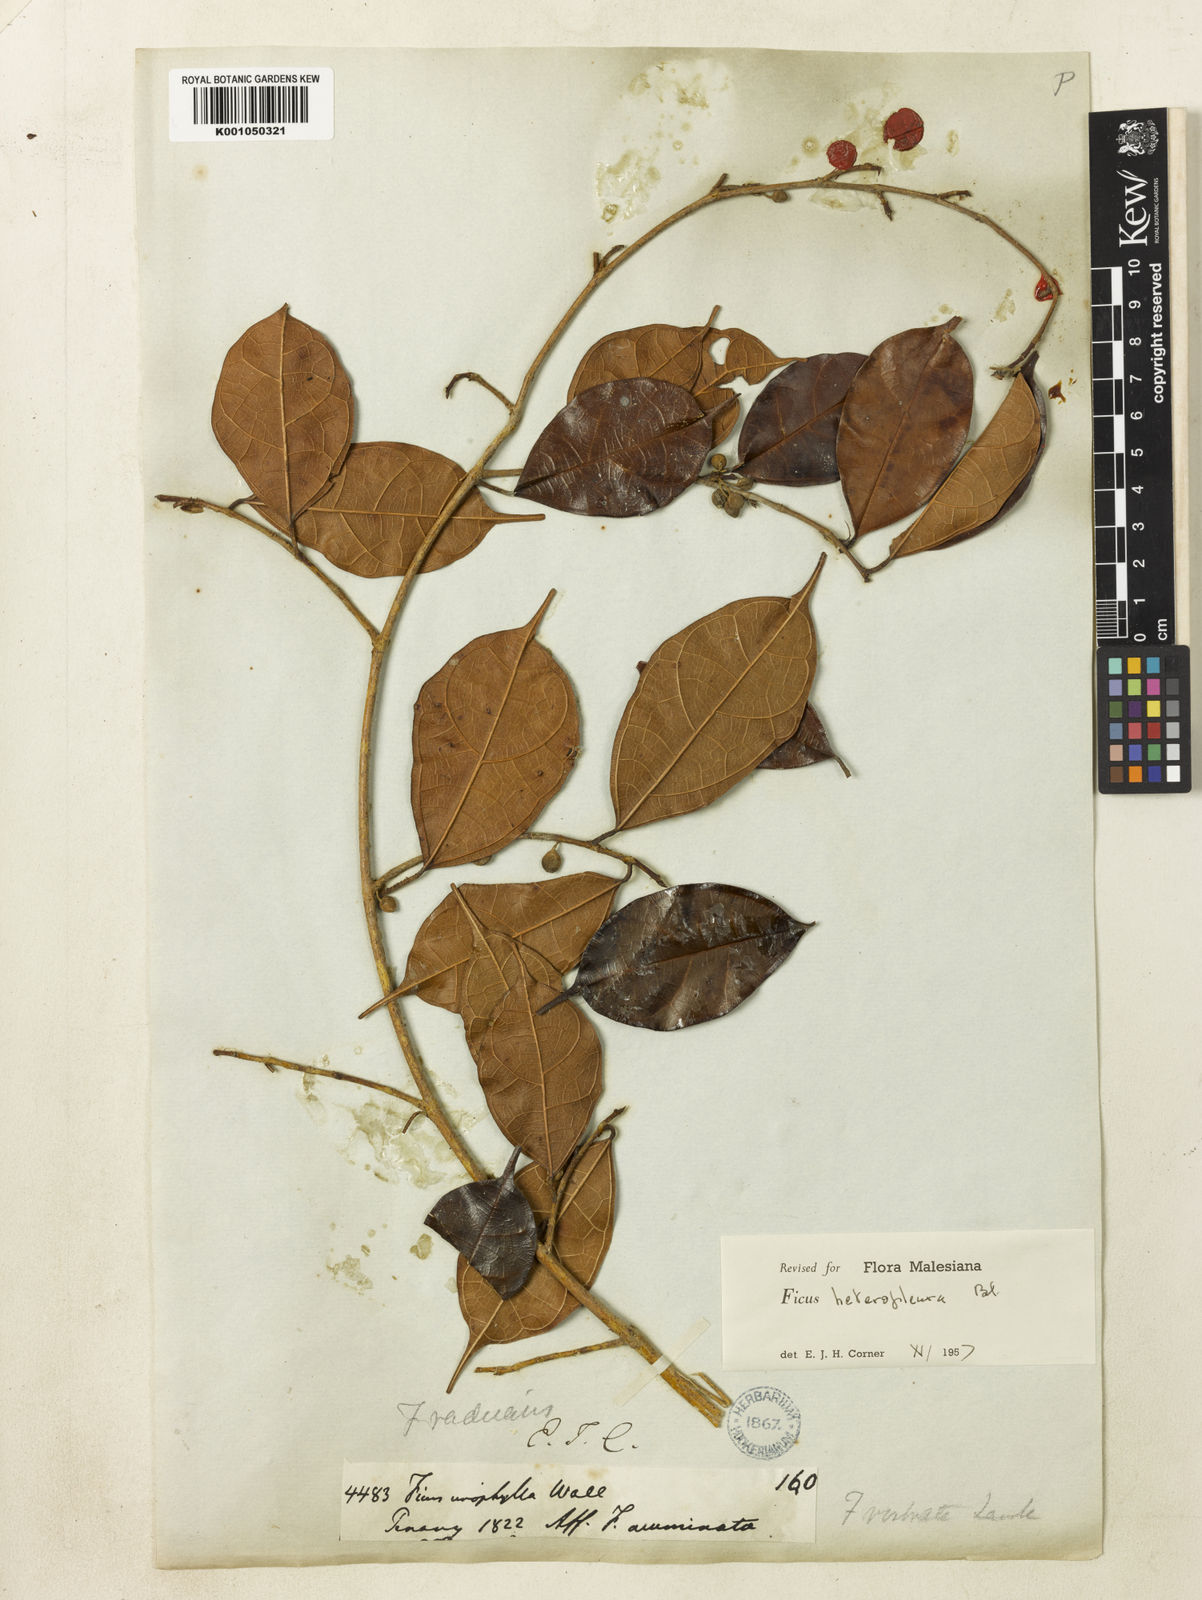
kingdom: Plantae
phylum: Tracheophyta
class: Magnoliopsida
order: Rosales
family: Moraceae
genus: Ficus
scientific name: Ficus heteropleura
